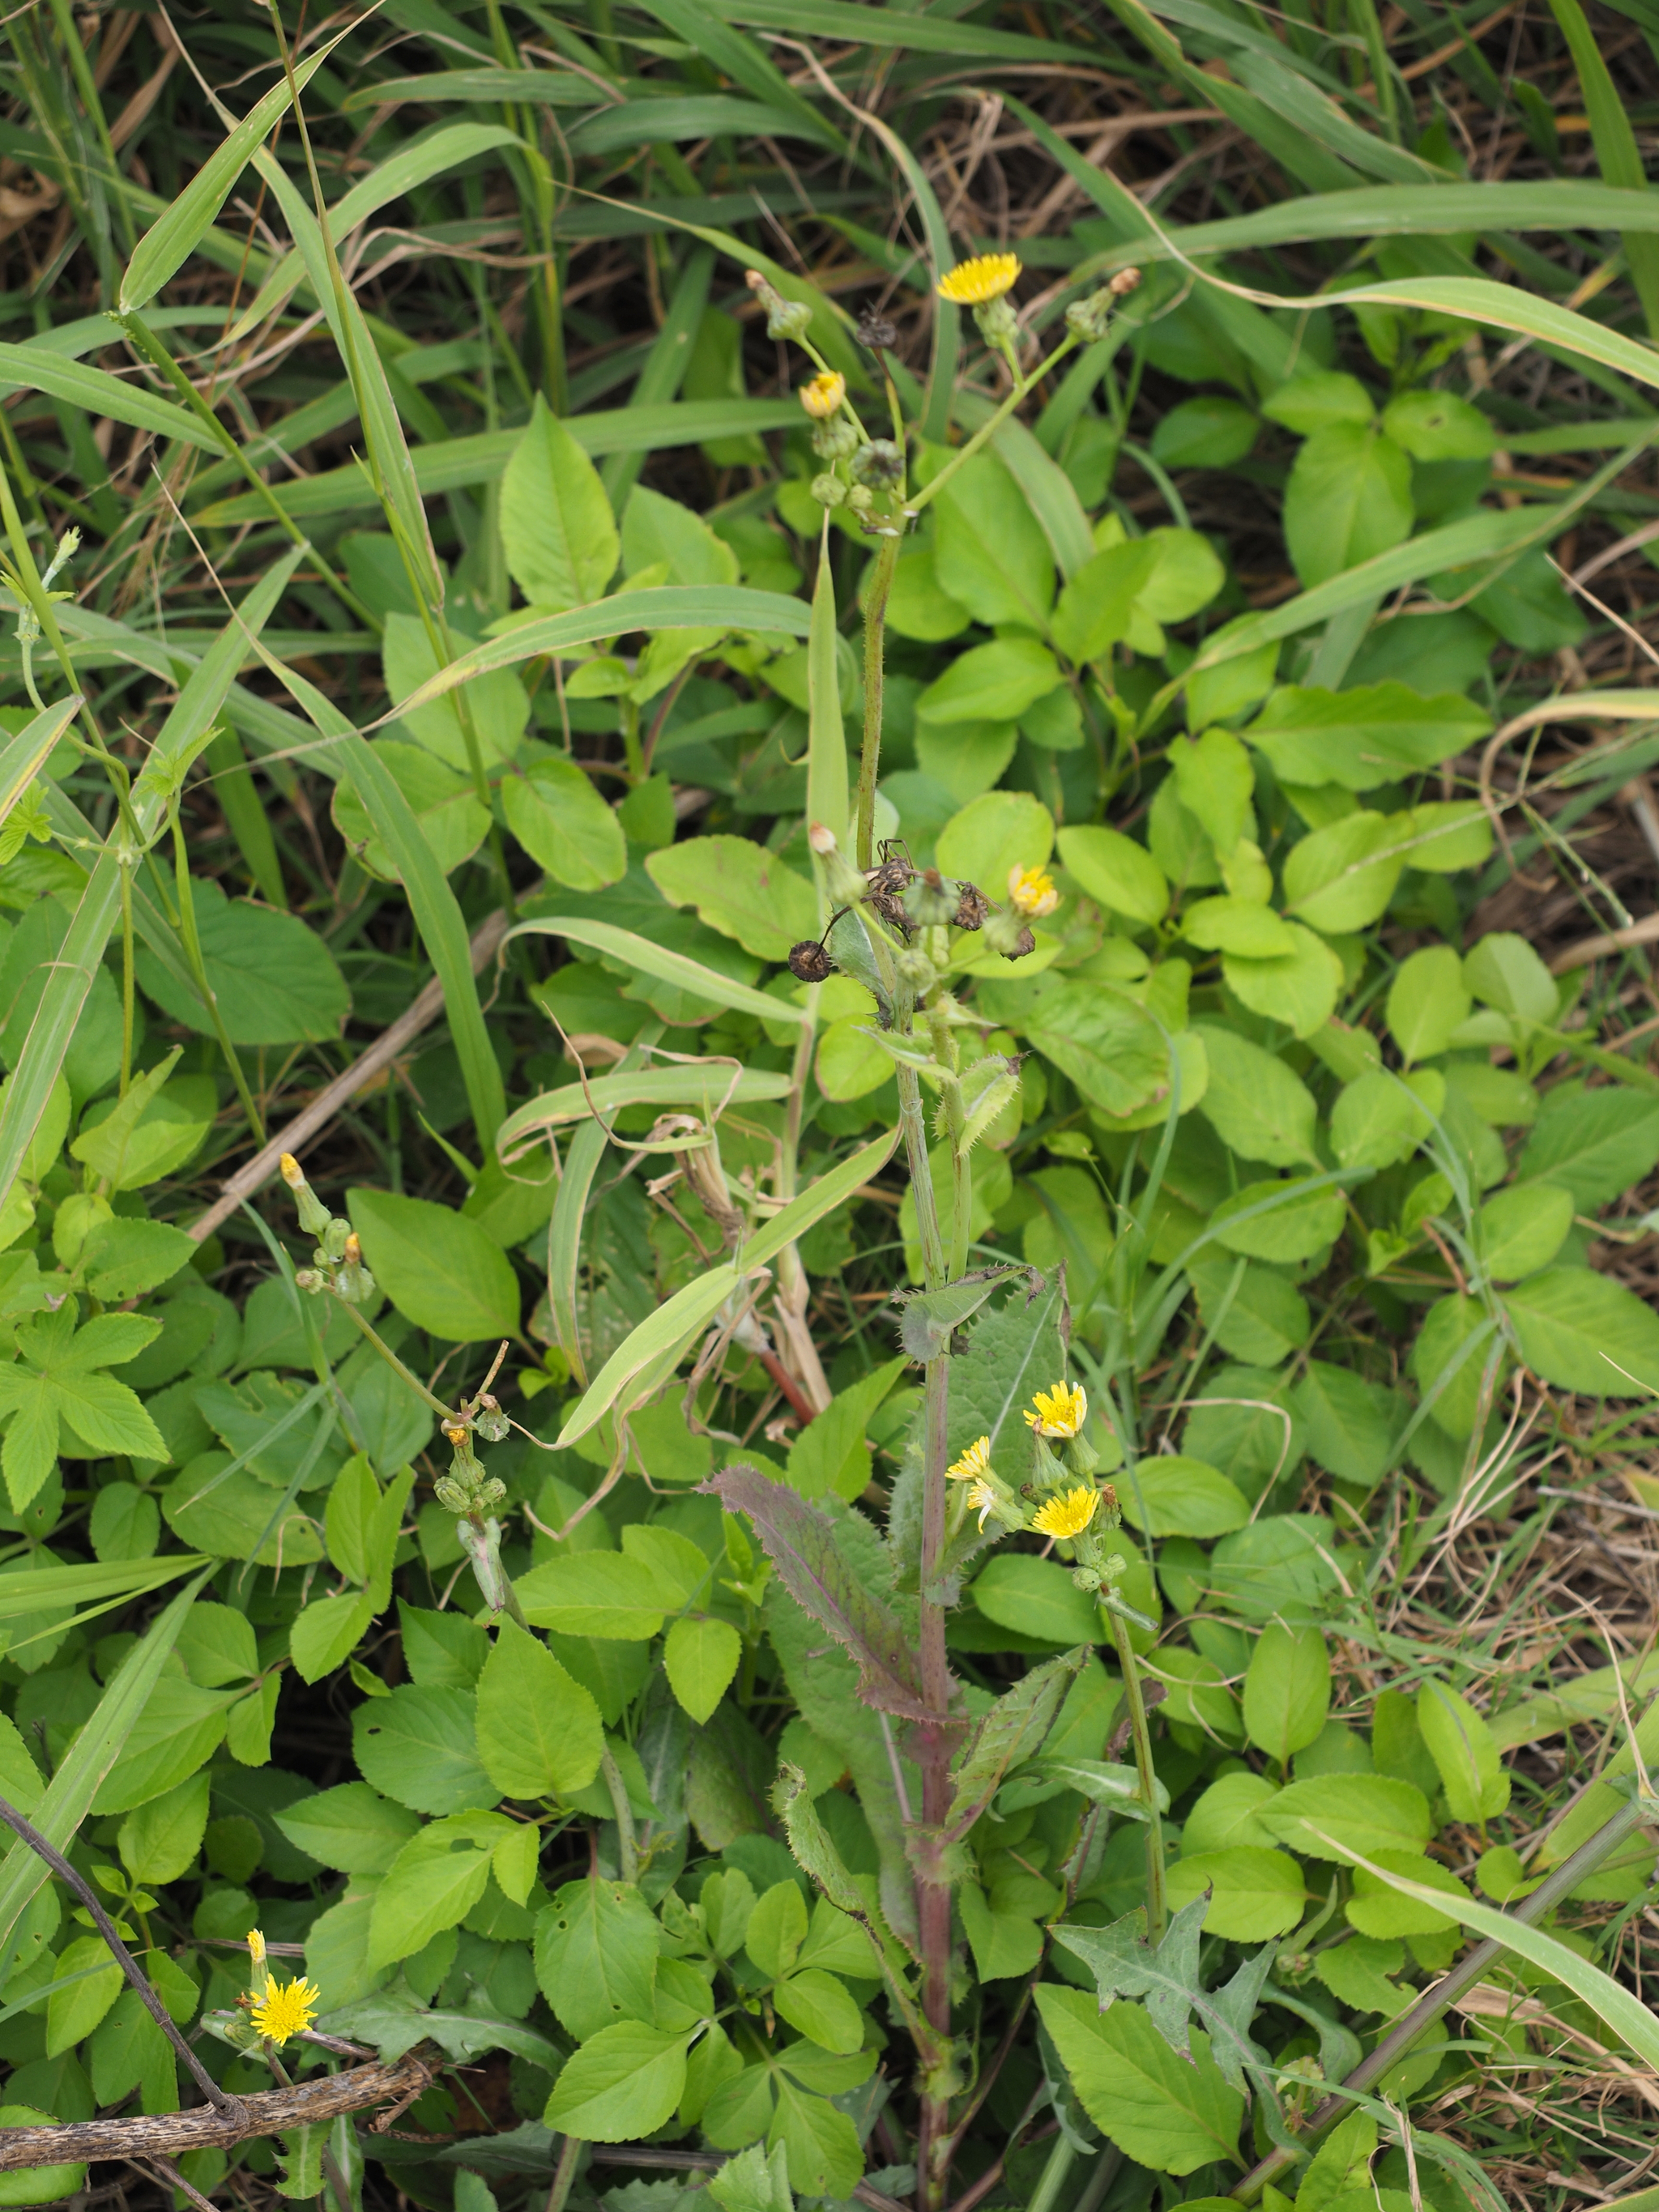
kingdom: Plantae
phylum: Tracheophyta
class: Magnoliopsida
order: Asterales
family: Asteraceae
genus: Sonchus
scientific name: Sonchus asper
